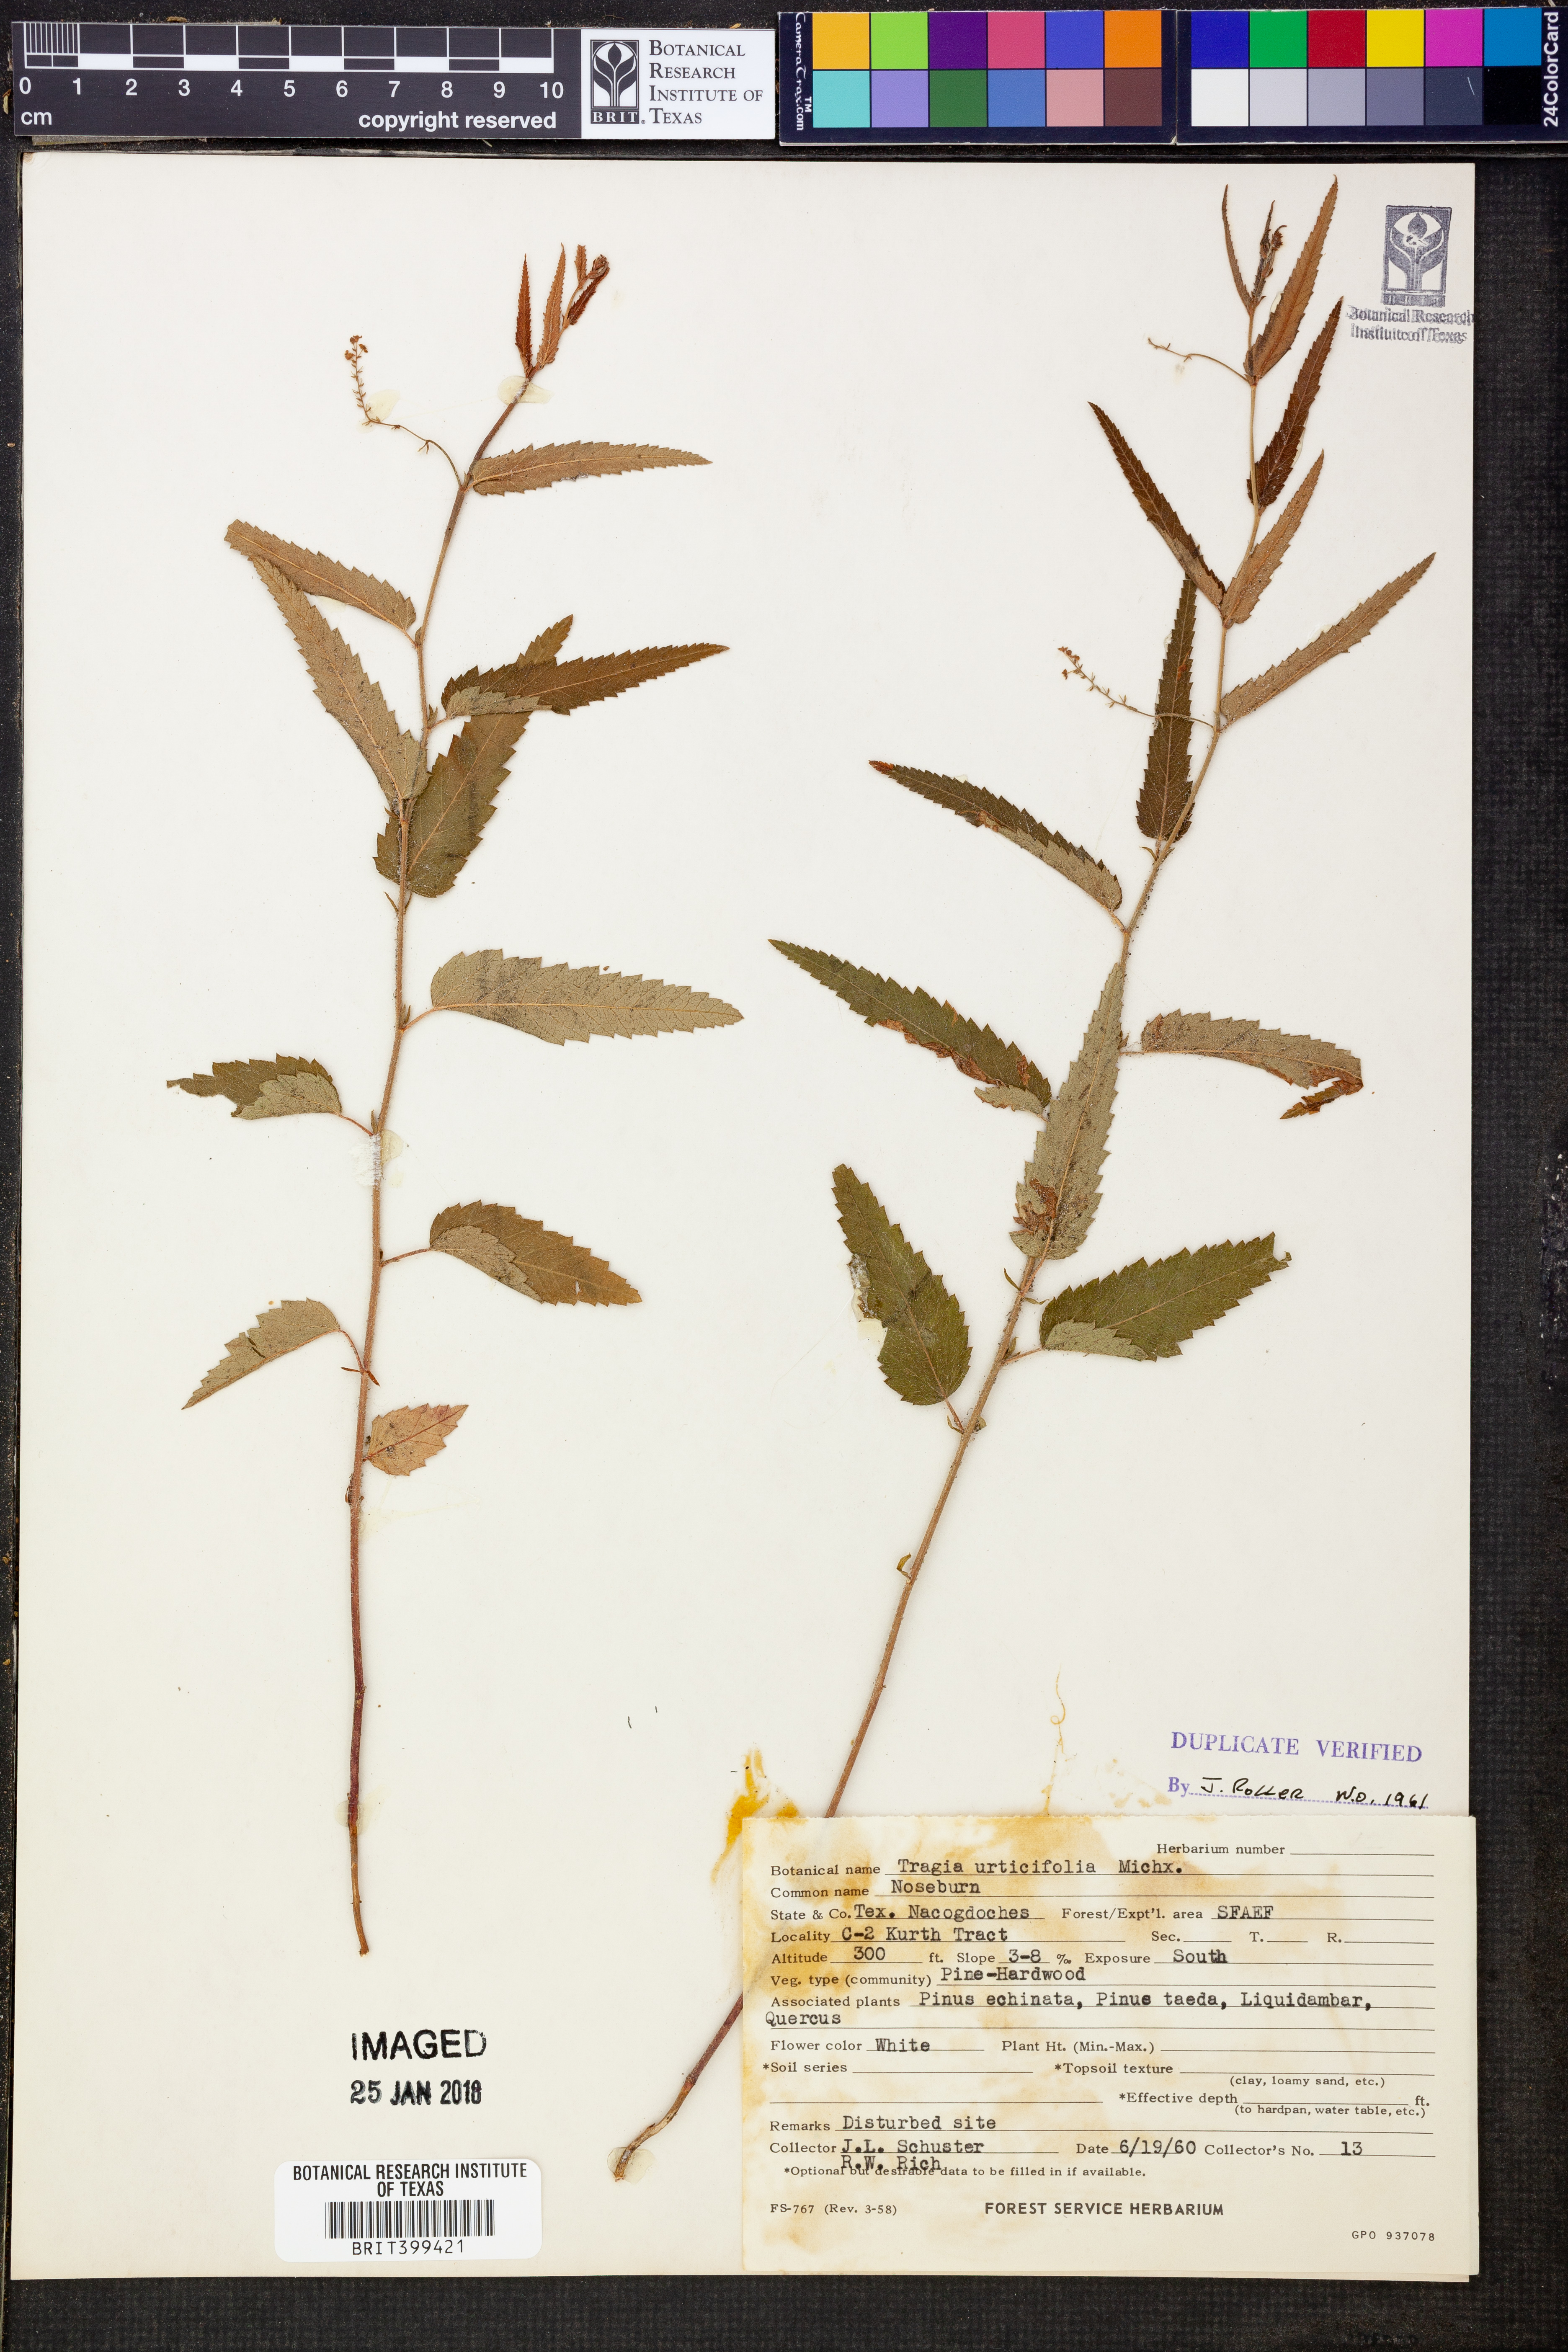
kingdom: Plantae
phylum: Tracheophyta
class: Magnoliopsida
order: Malpighiales
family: Euphorbiaceae
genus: Tragia
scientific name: Tragia urticifolia
